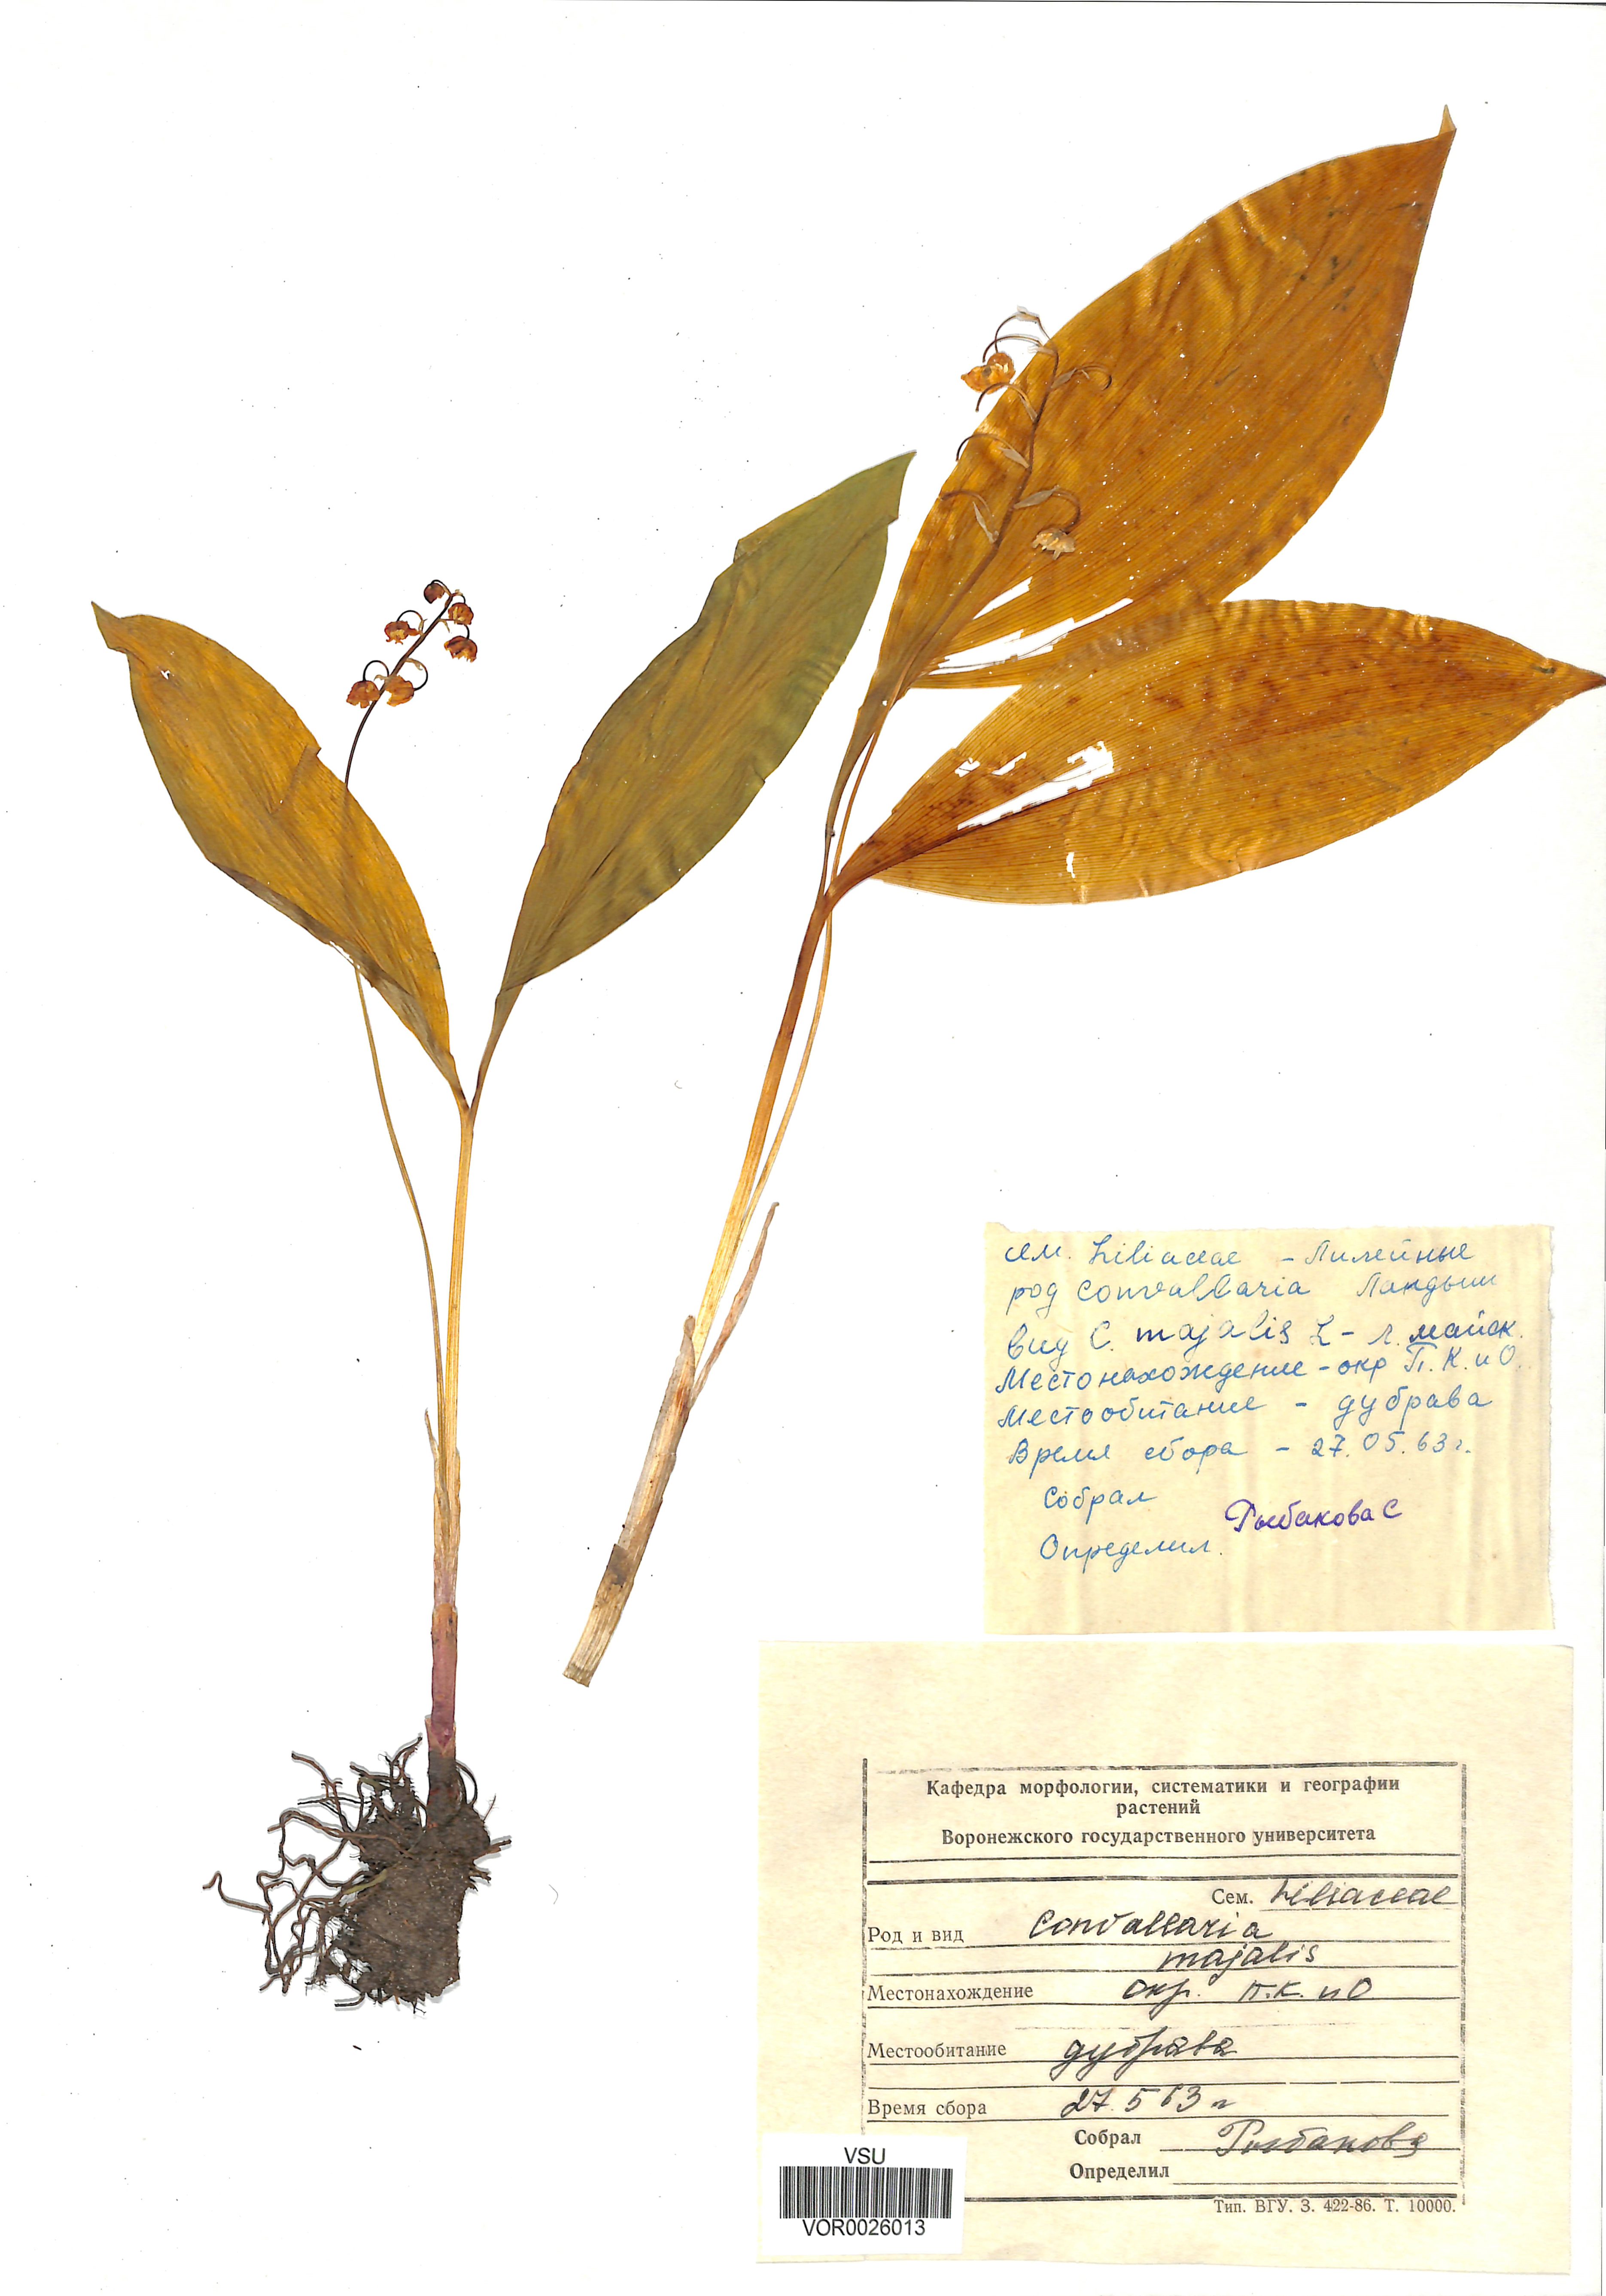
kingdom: Plantae
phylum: Tracheophyta
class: Liliopsida
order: Asparagales
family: Asparagaceae
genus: Convallaria
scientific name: Convallaria majalis
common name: Lily-of-the-valley
